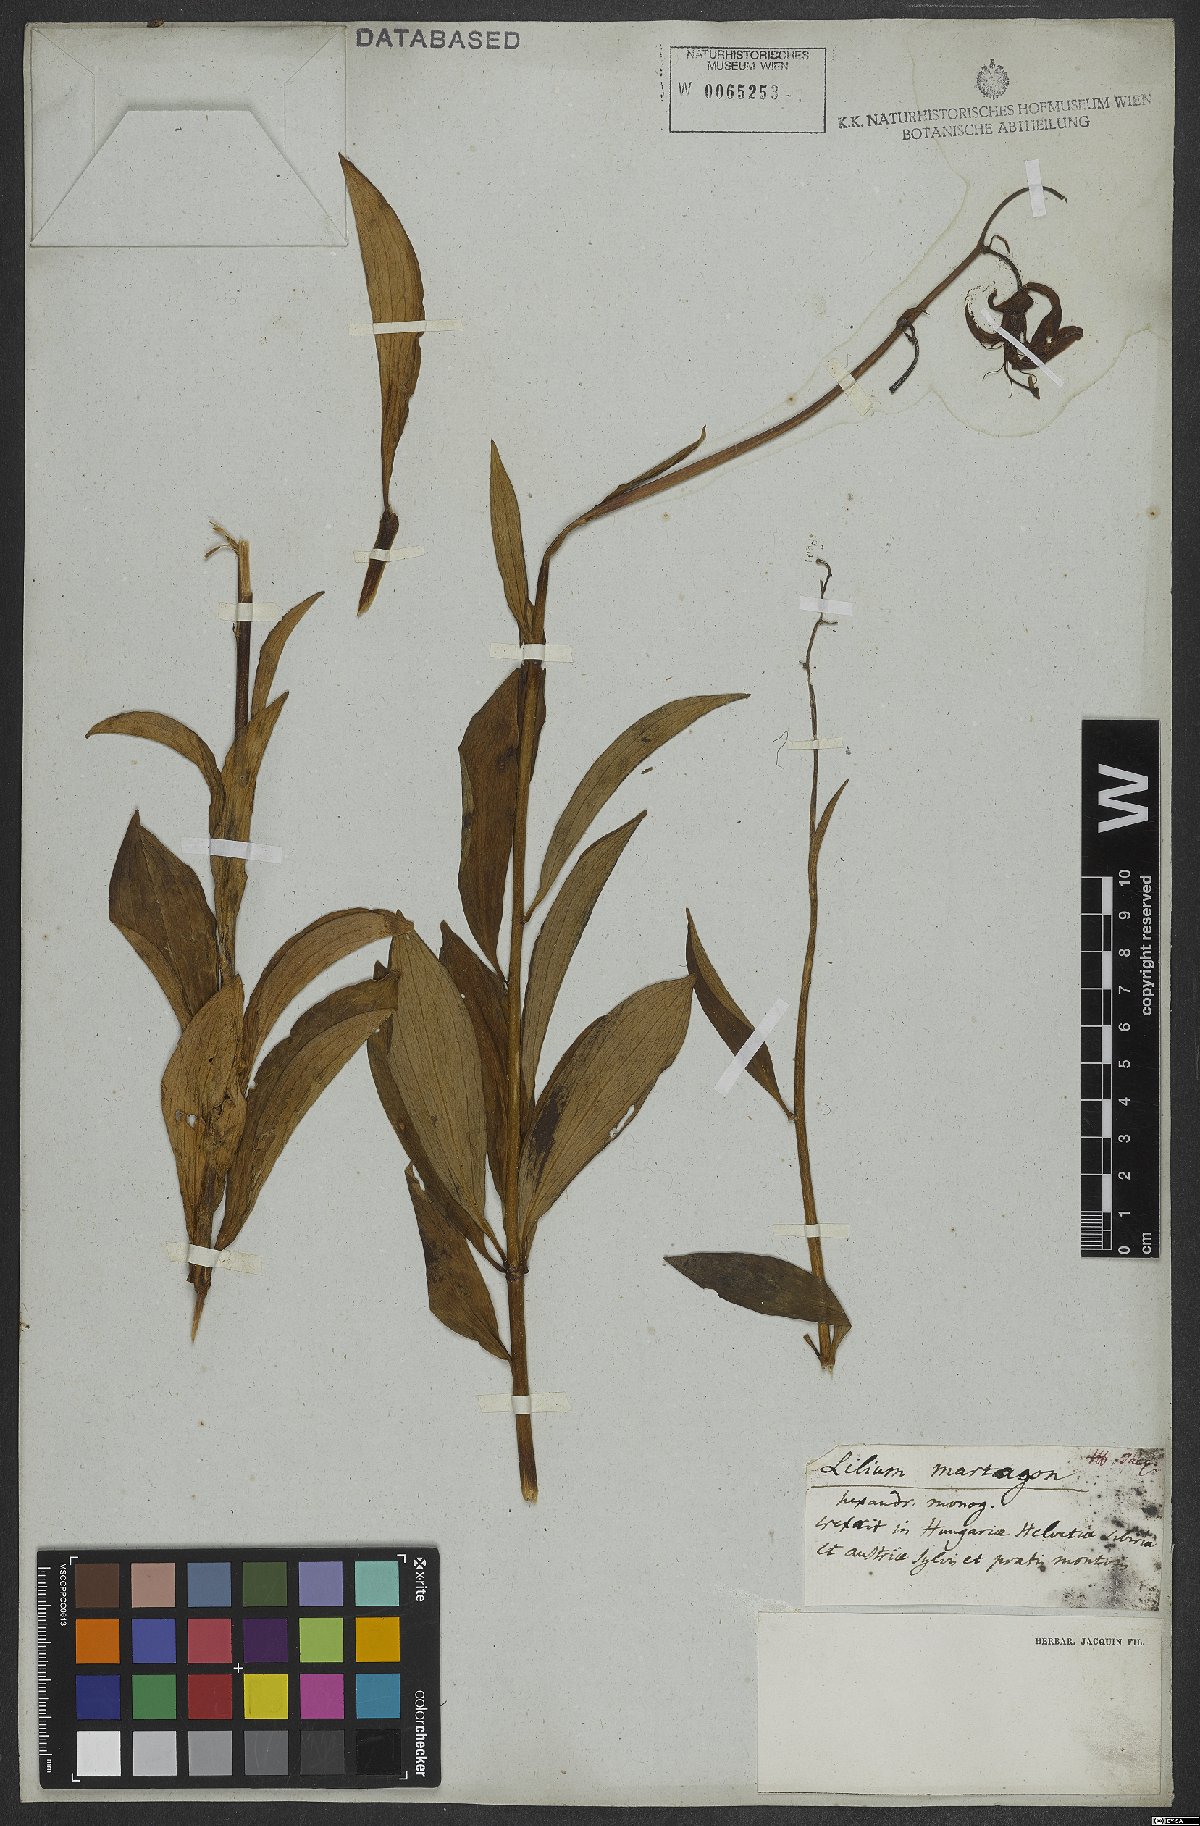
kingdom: Plantae
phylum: Tracheophyta
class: Liliopsida
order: Liliales
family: Liliaceae
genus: Lilium
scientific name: Lilium martagon
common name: Martagon lily
